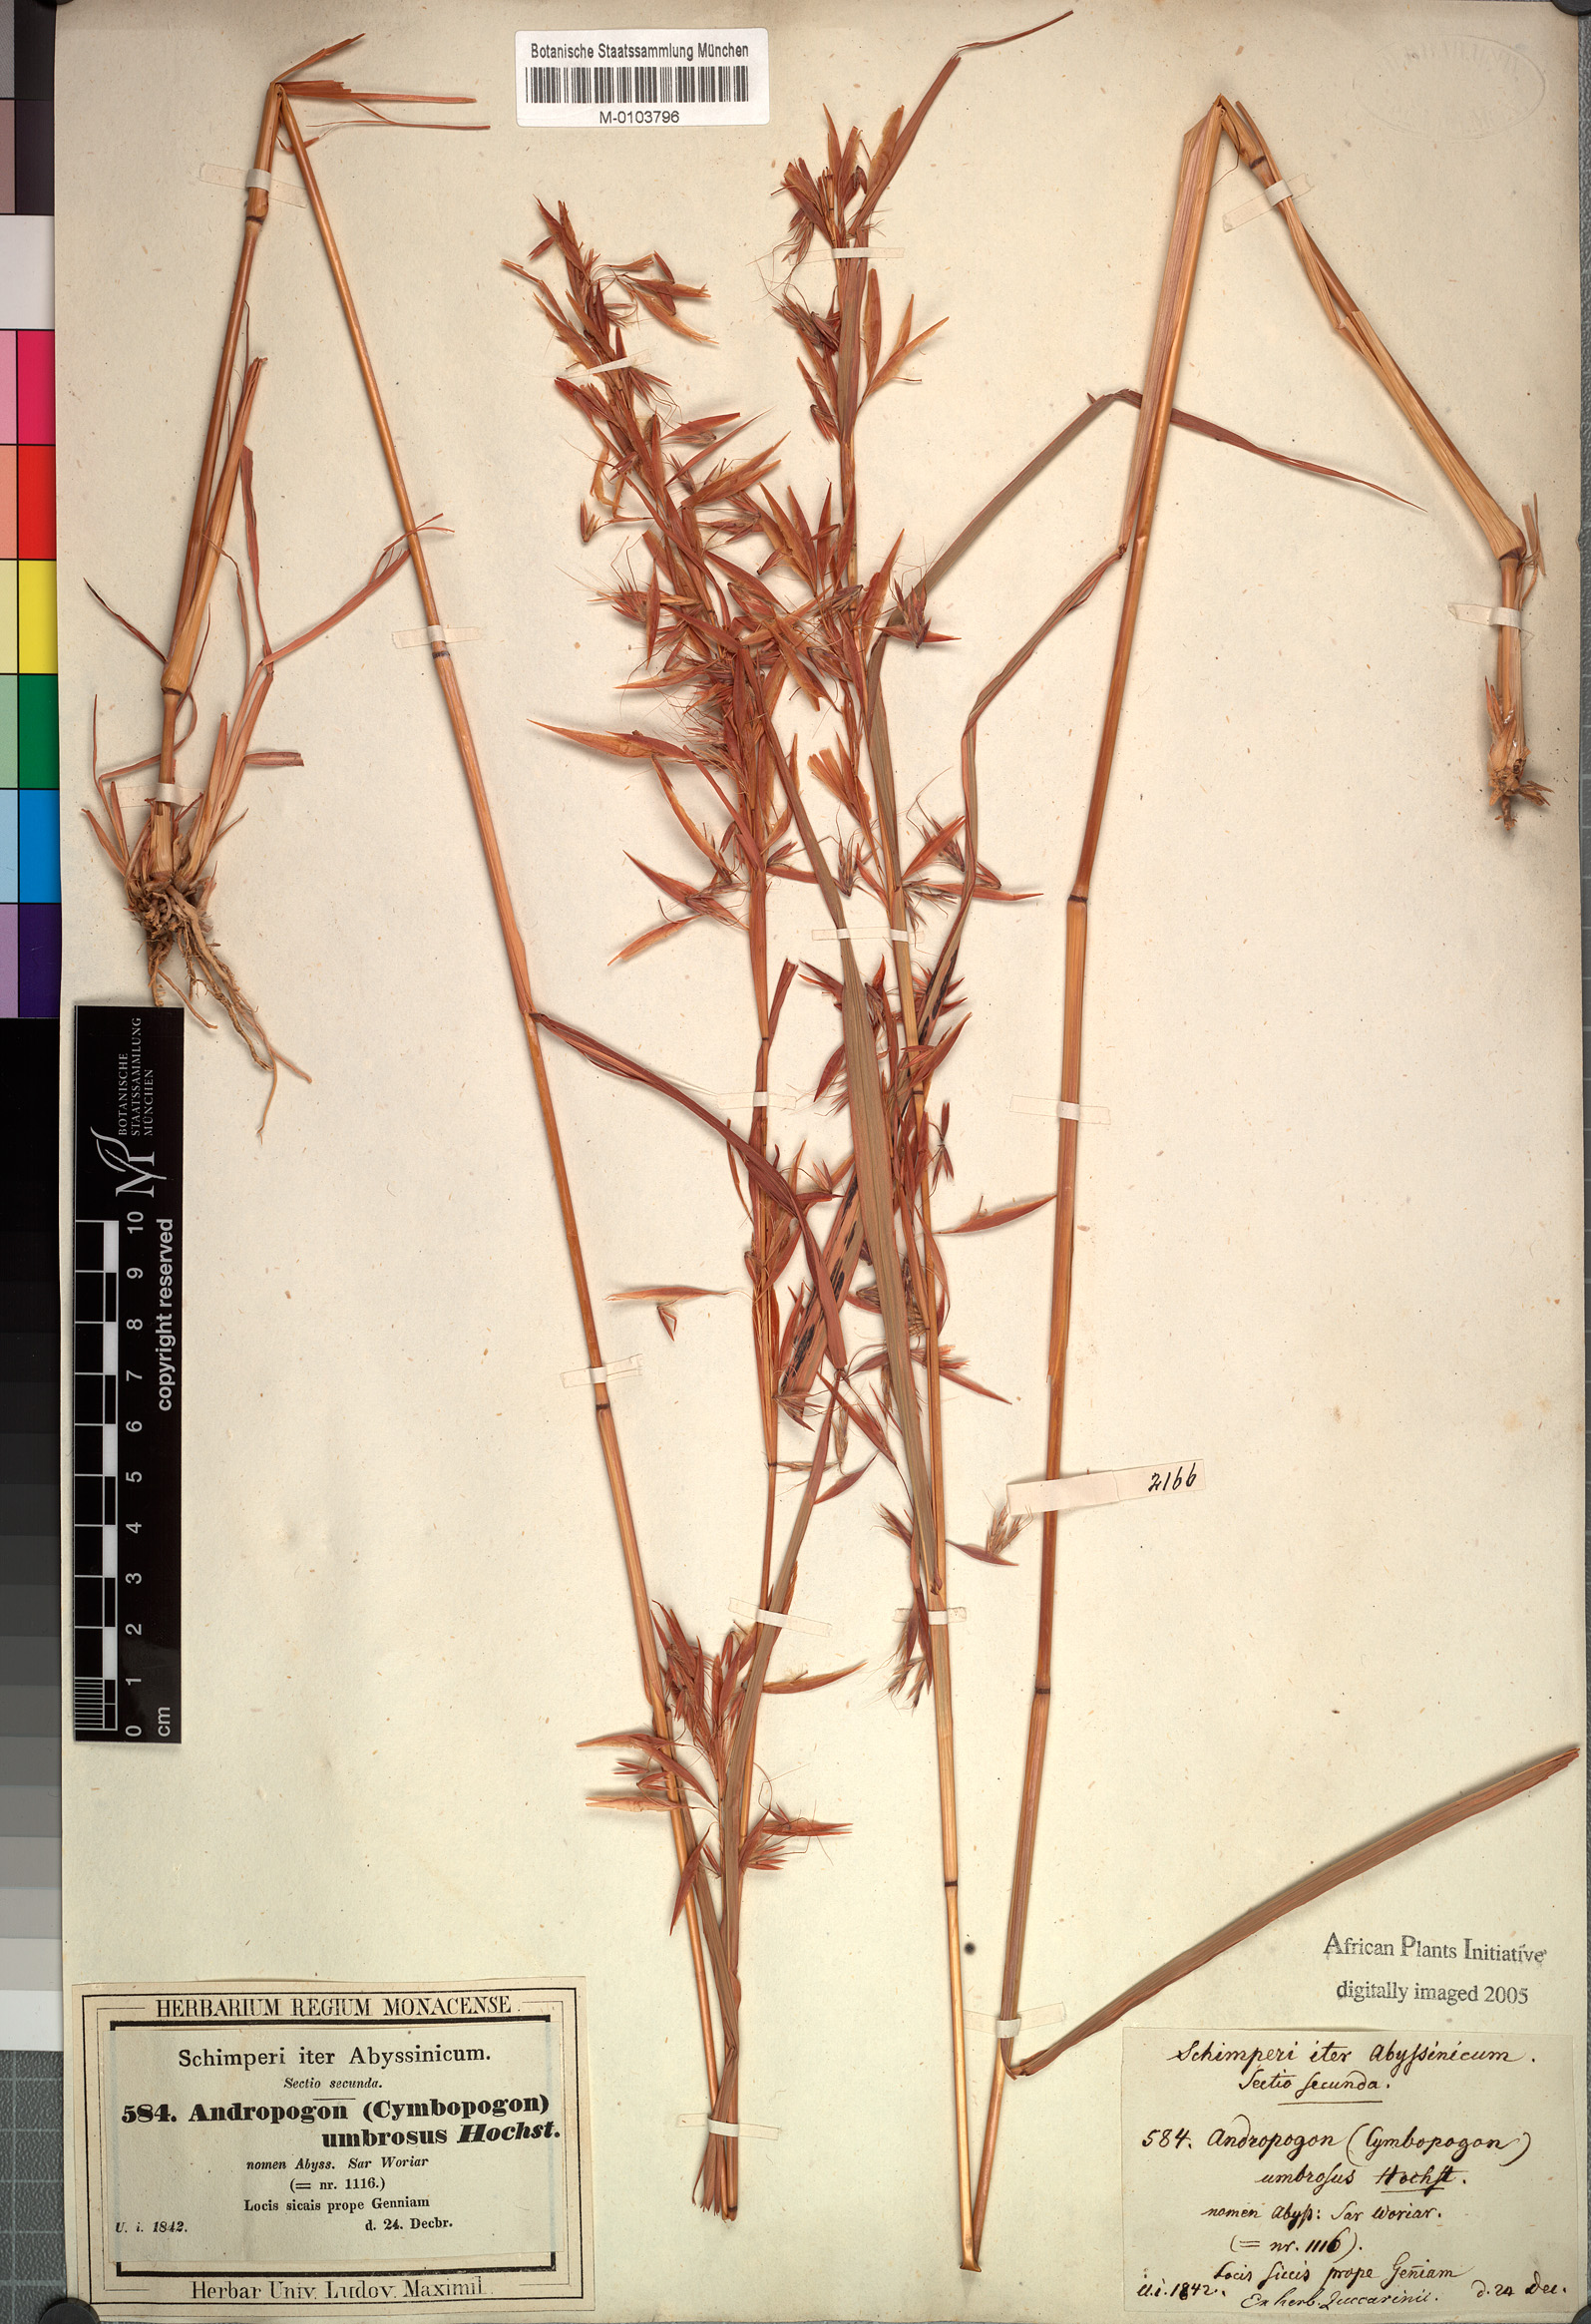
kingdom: Plantae
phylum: Tracheophyta
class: Liliopsida
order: Poales
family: Poaceae
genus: Hyparrhenia
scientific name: Hyparrhenia umbrosa
